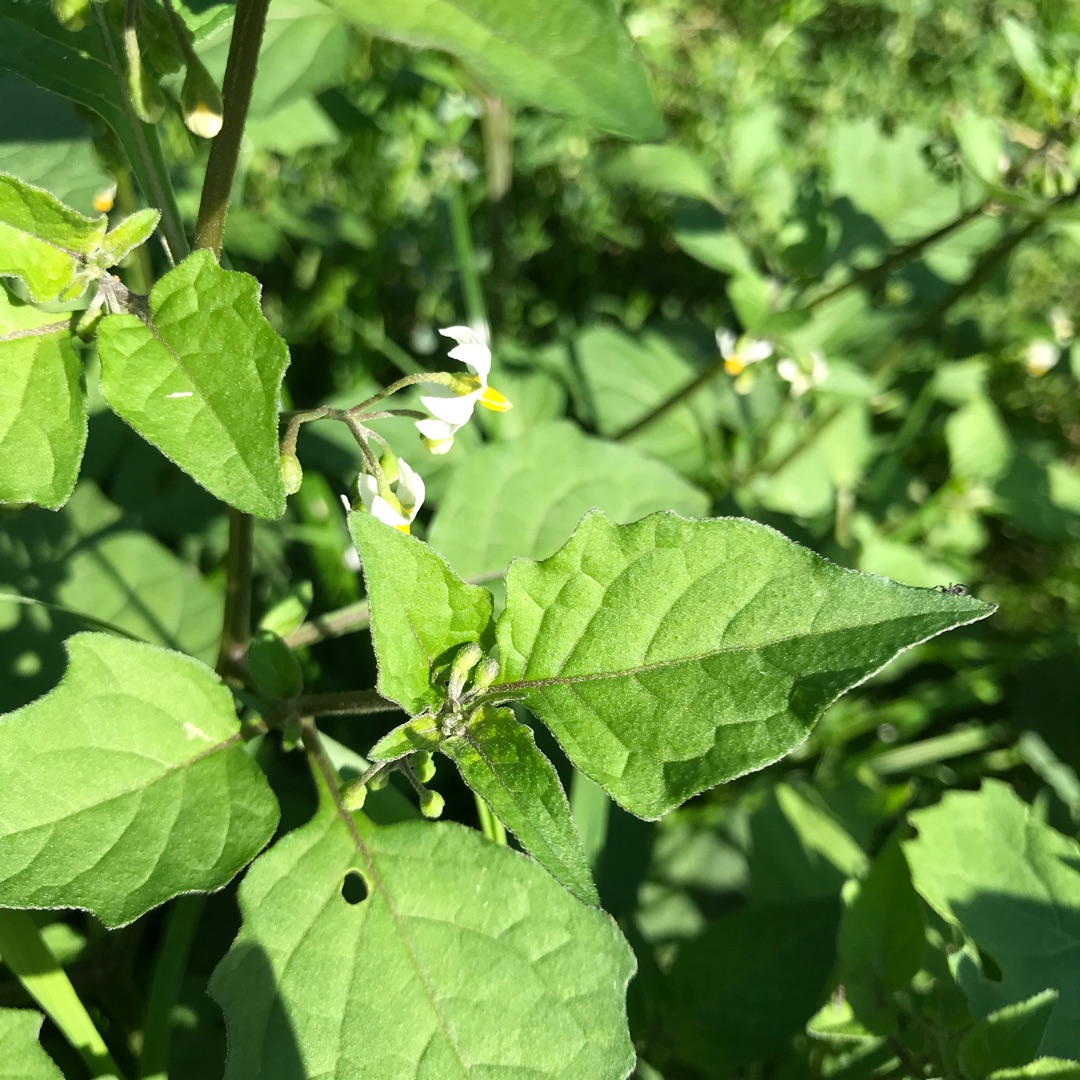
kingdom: Plantae
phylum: Tracheophyta
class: Magnoliopsida
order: Solanales
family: Solanaceae
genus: Solanum
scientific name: Solanum nigrum
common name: Sort natskygge
